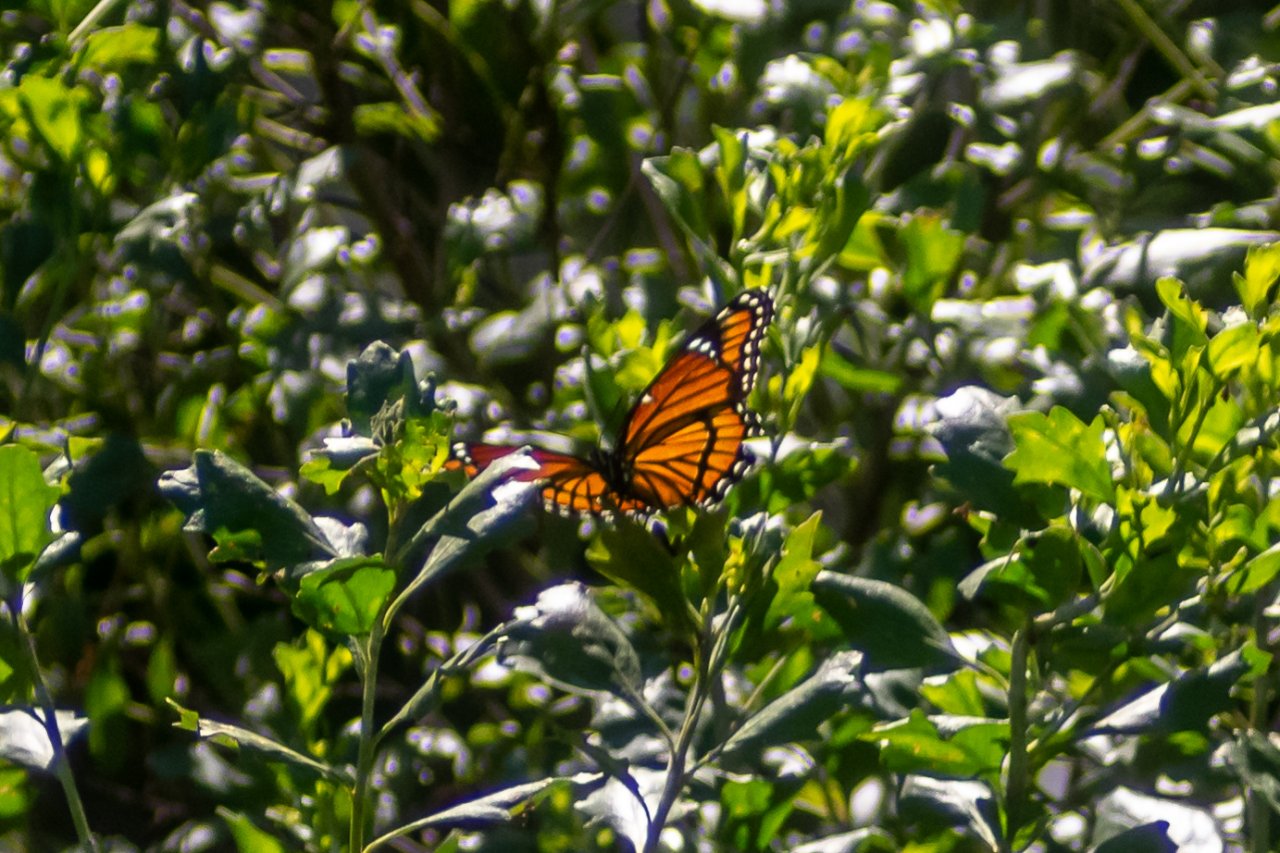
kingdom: Animalia
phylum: Arthropoda
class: Insecta
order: Lepidoptera
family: Nymphalidae
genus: Limenitis
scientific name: Limenitis archippus
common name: Viceroy
